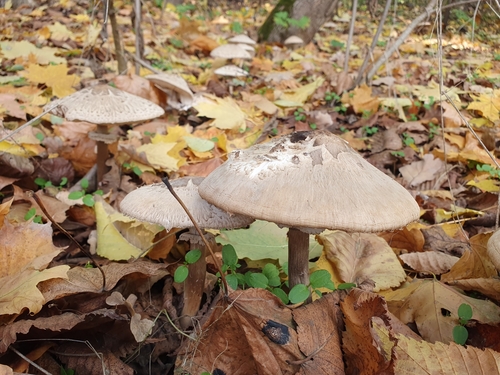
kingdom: Fungi
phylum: Basidiomycota
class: Agaricomycetes
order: Agaricales
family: Agaricaceae
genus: Chlorophyllum
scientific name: Chlorophyllum rhacodes
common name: Shaggy parasol
